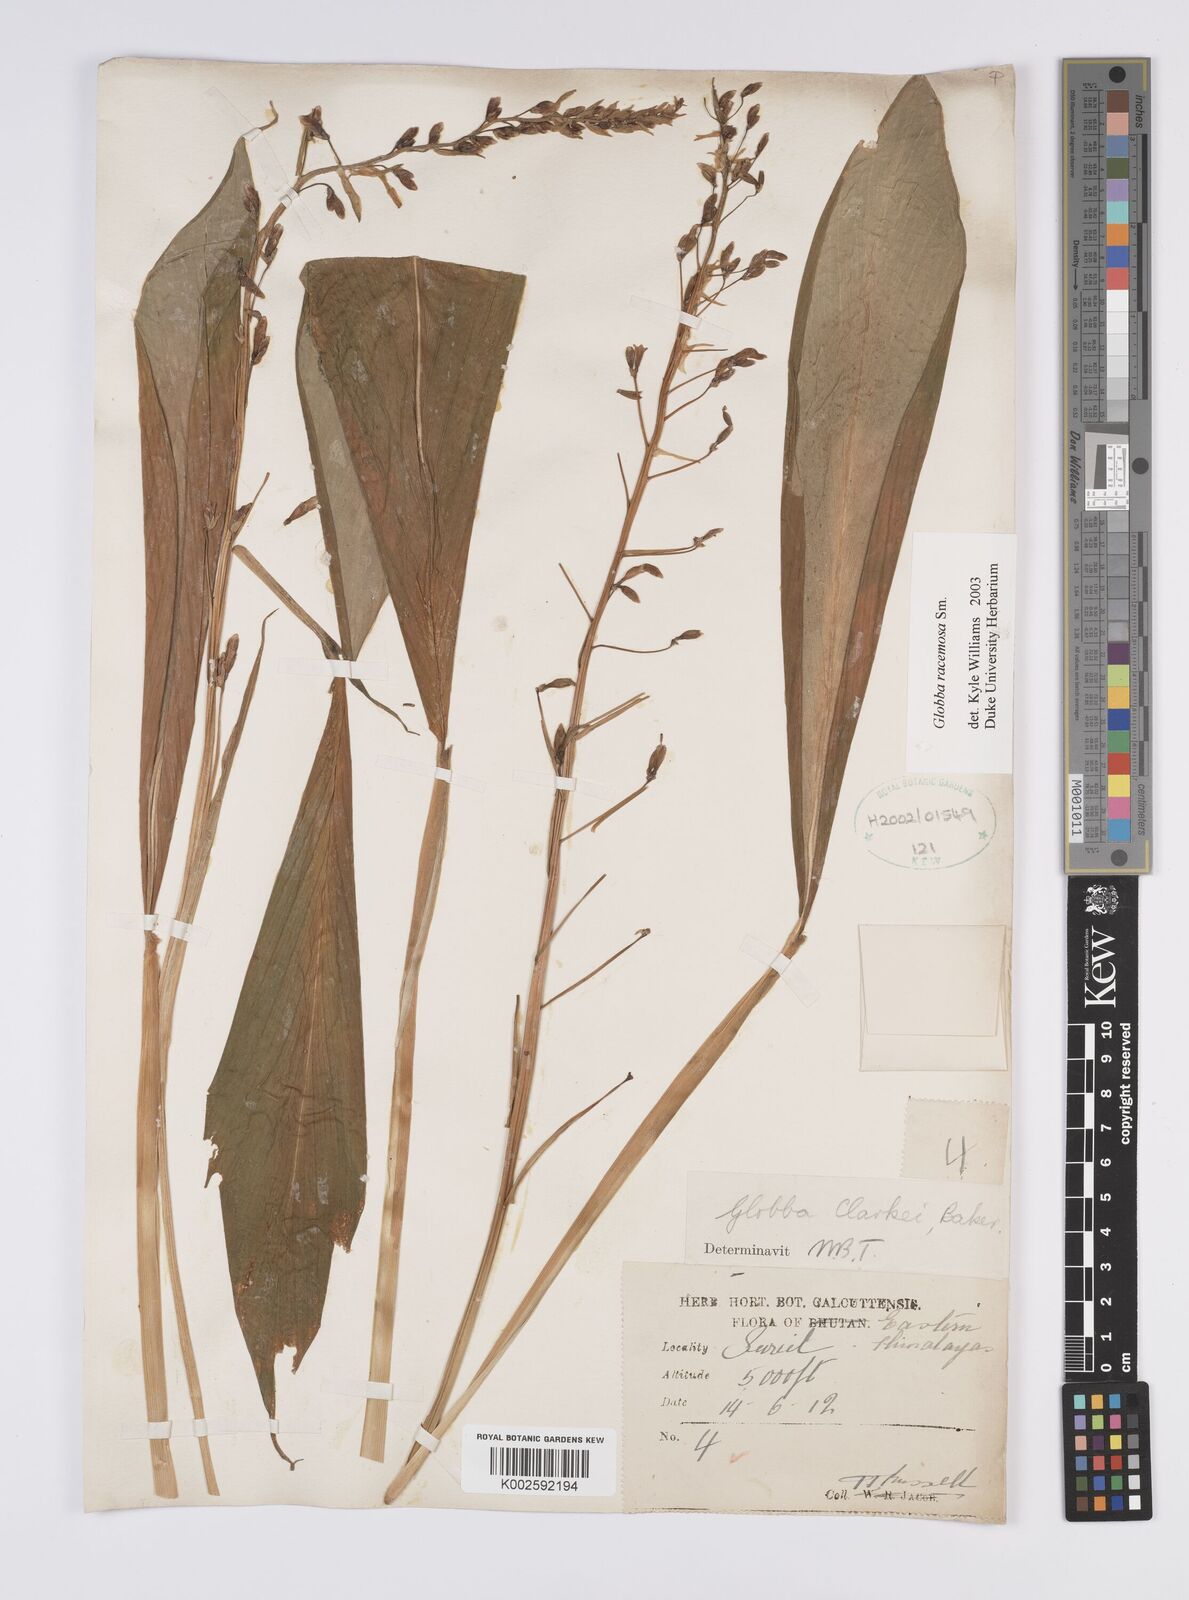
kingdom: Plantae
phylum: Tracheophyta
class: Liliopsida
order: Zingiberales
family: Zingiberaceae
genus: Globba
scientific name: Globba racemosa
